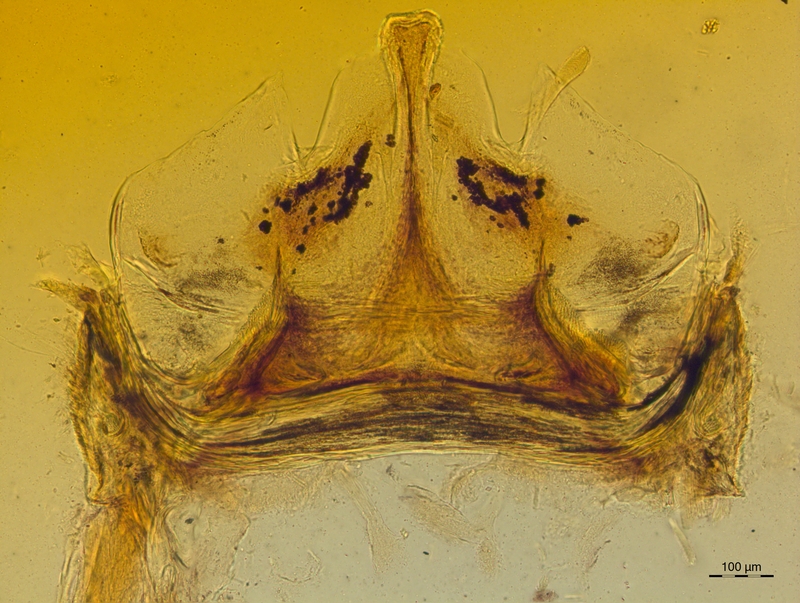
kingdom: Animalia
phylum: Arthropoda
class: Diplopoda
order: Chordeumatida
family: Craspedosomatidae
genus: Craspedosoma
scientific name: Craspedosoma taurinorum
